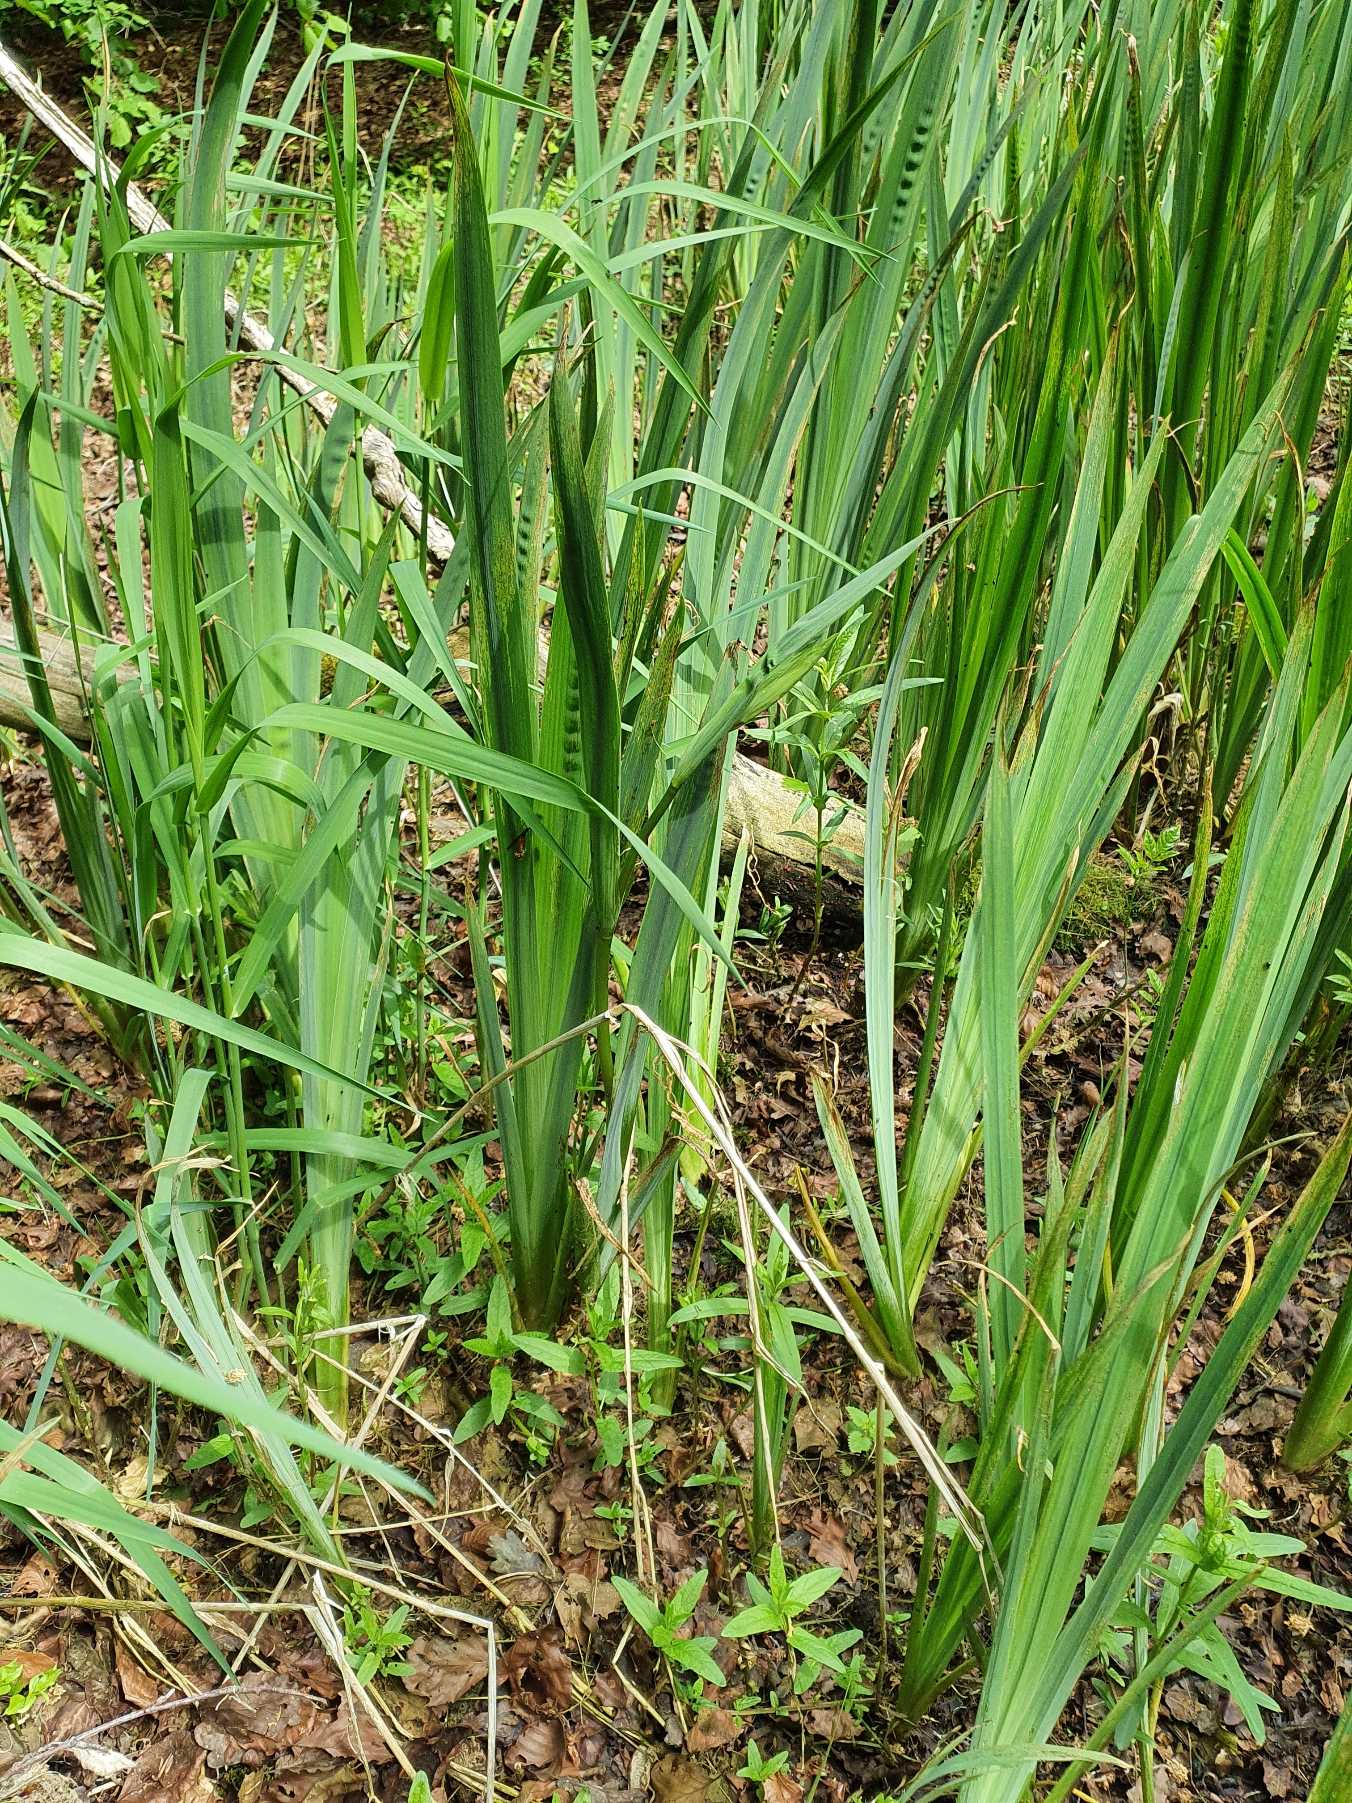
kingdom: Plantae
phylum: Tracheophyta
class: Liliopsida
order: Asparagales
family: Iridaceae
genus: Iris
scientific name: Iris pseudacorus
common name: Gul iris
